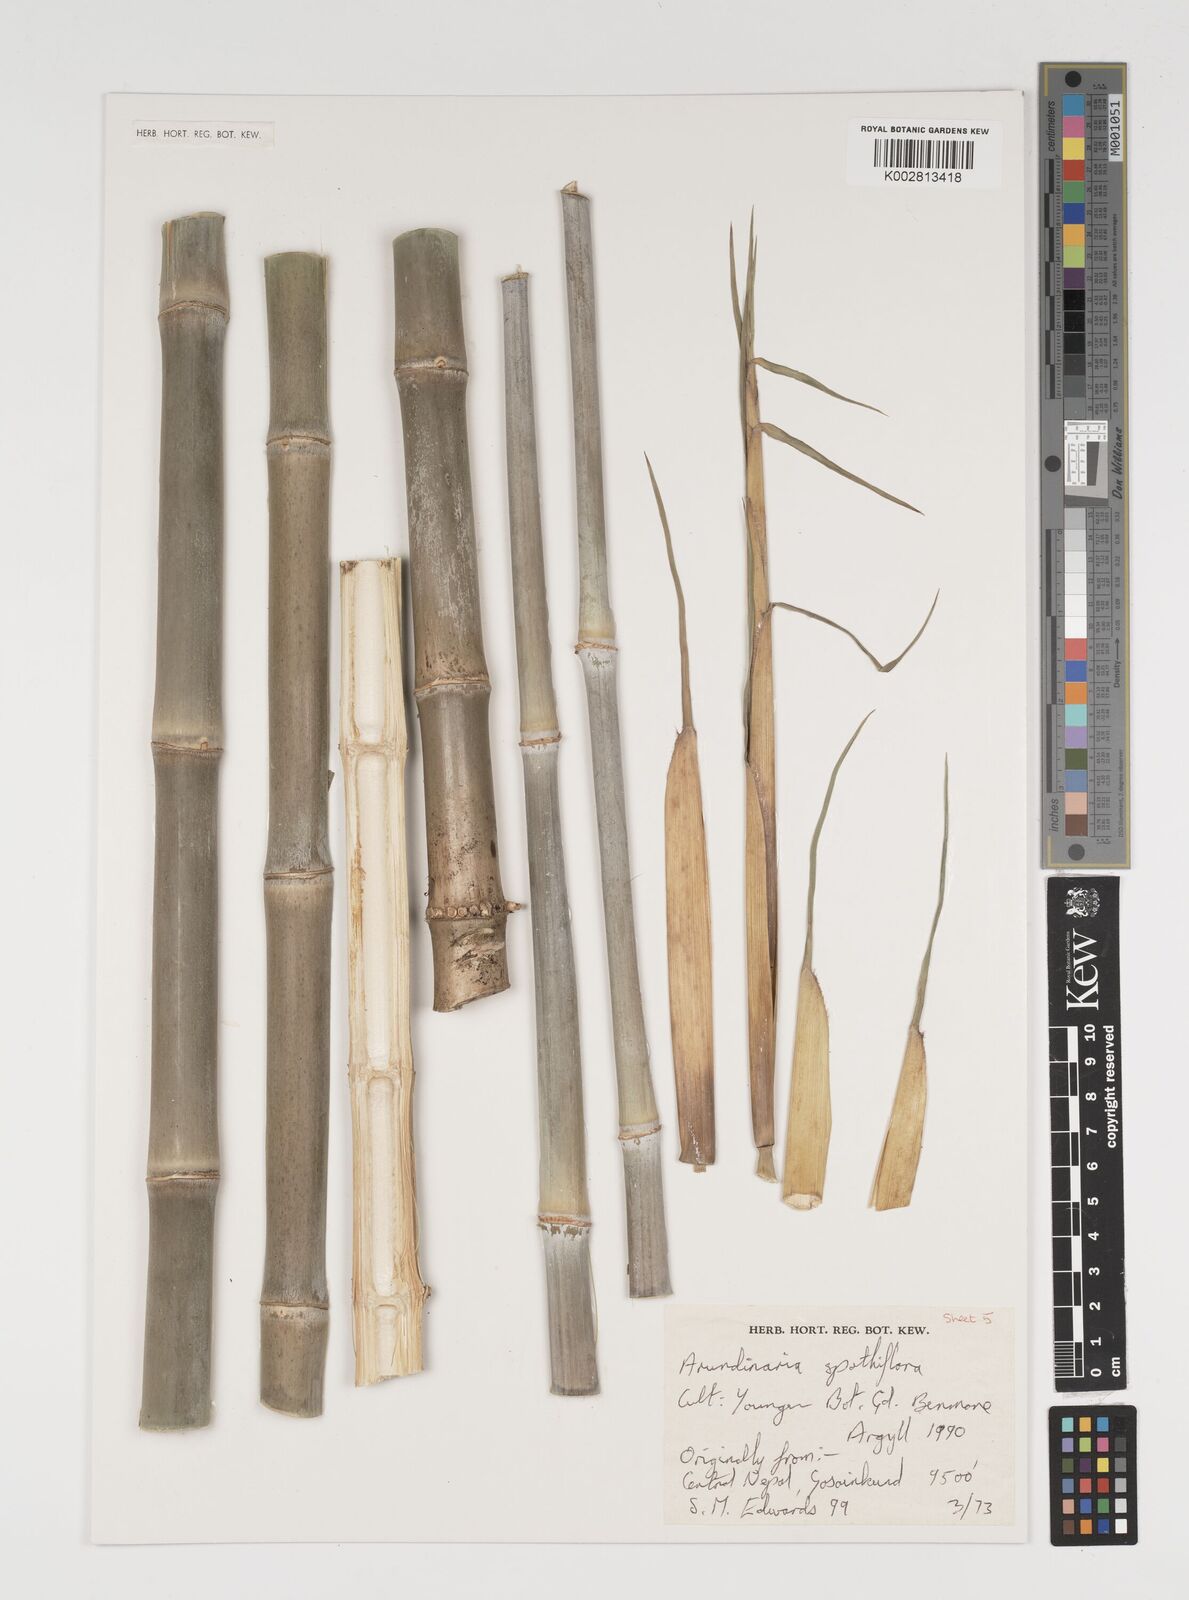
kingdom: Plantae
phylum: Tracheophyta
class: Liliopsida
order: Poales
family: Poaceae
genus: Thamnocalamus
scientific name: Thamnocalamus crassinodus
